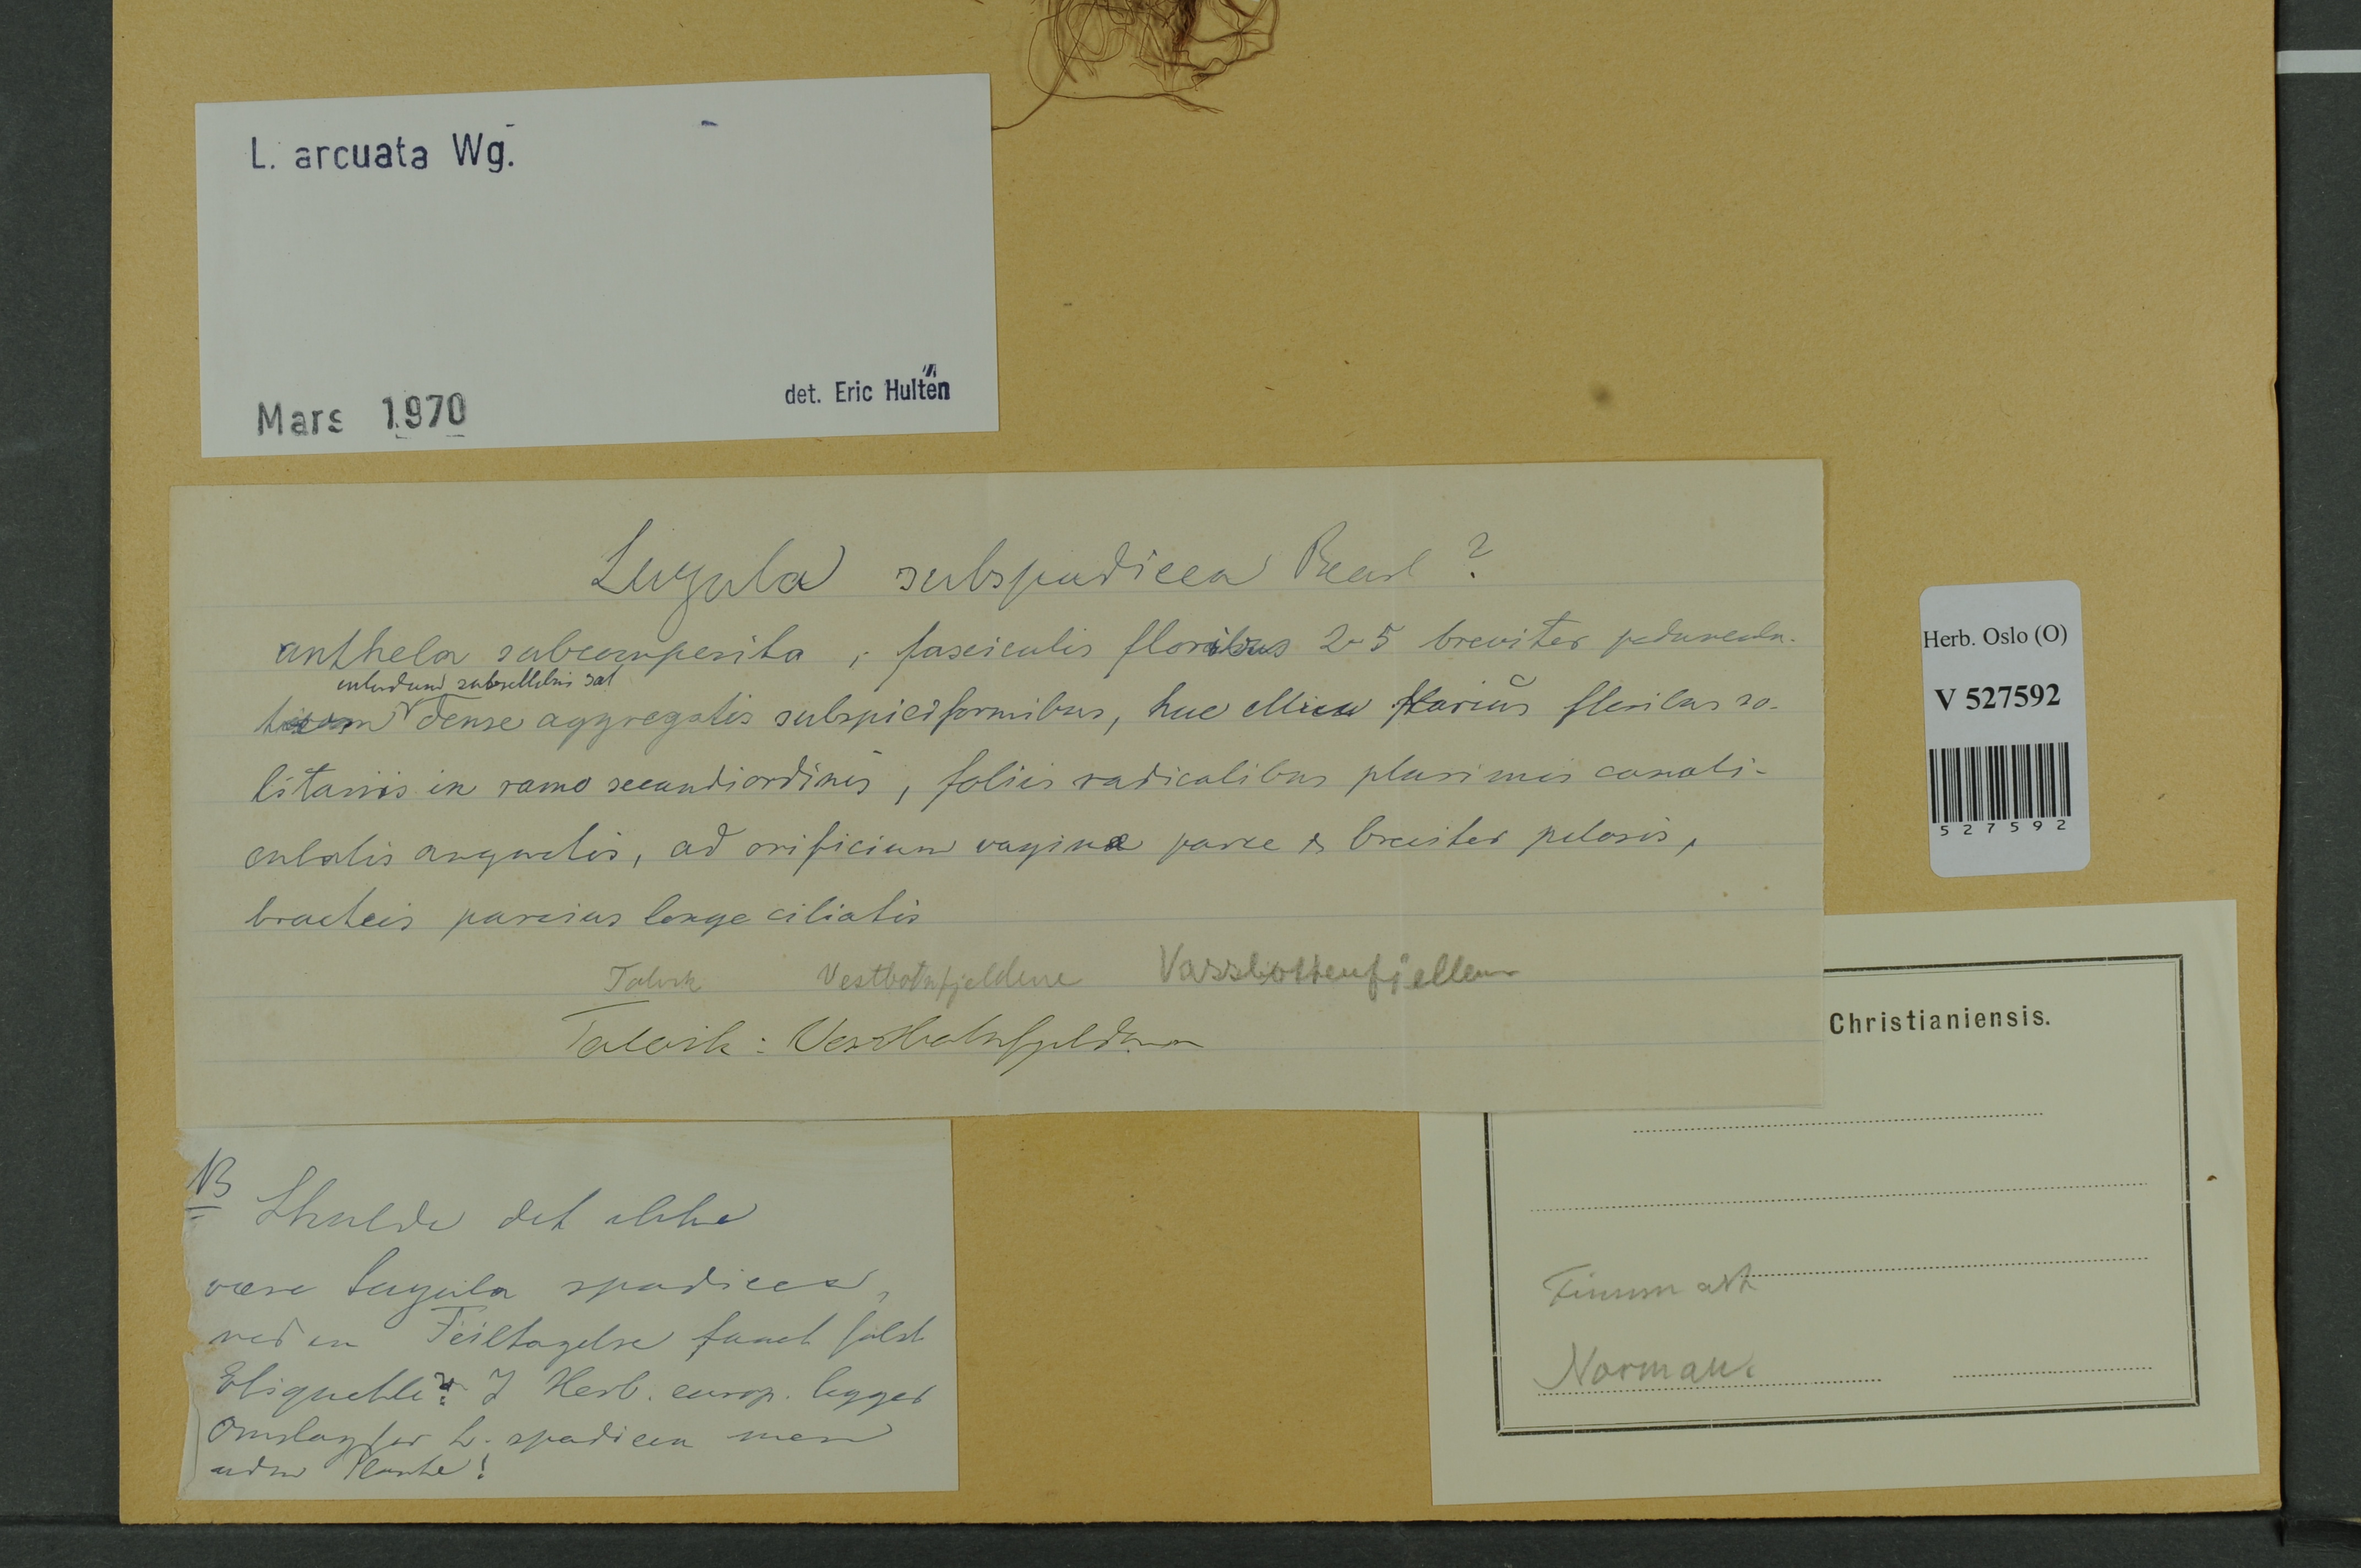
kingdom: Plantae
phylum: Tracheophyta
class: Liliopsida
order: Poales
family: Juncaceae
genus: Luzula
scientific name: Luzula arcuata
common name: Curved wood-rush
